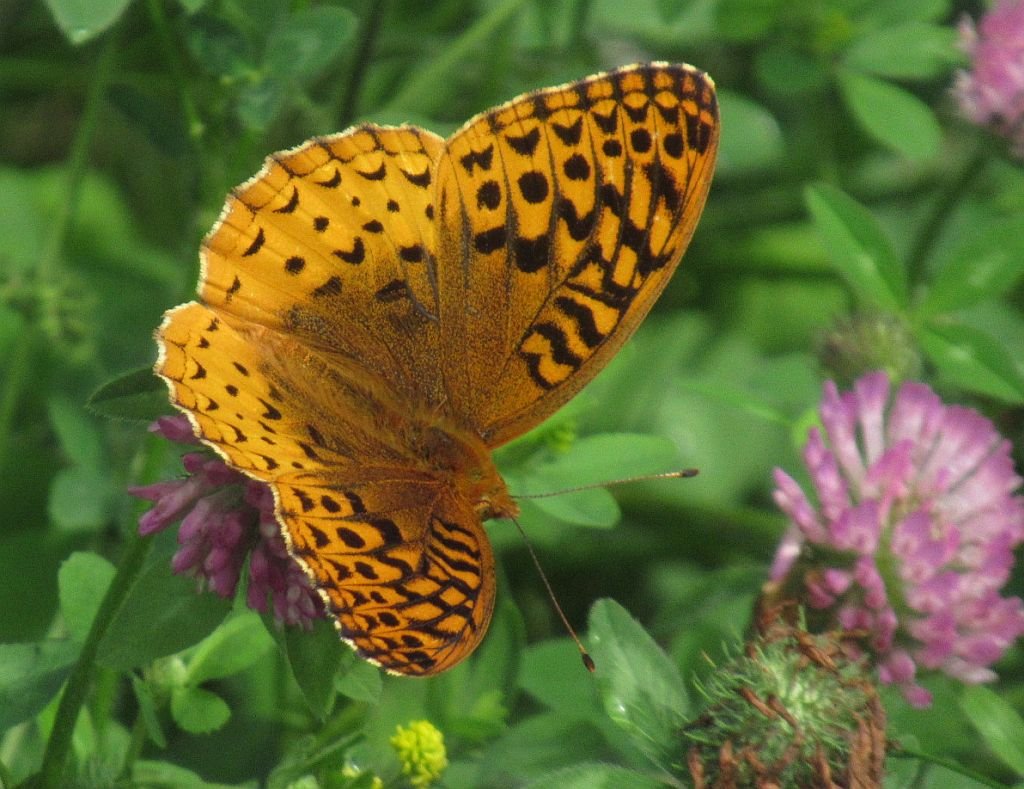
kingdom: Animalia
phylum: Arthropoda
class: Insecta
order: Lepidoptera
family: Nymphalidae
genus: Speyeria
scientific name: Speyeria cybele
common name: Great Spangled Fritillary
